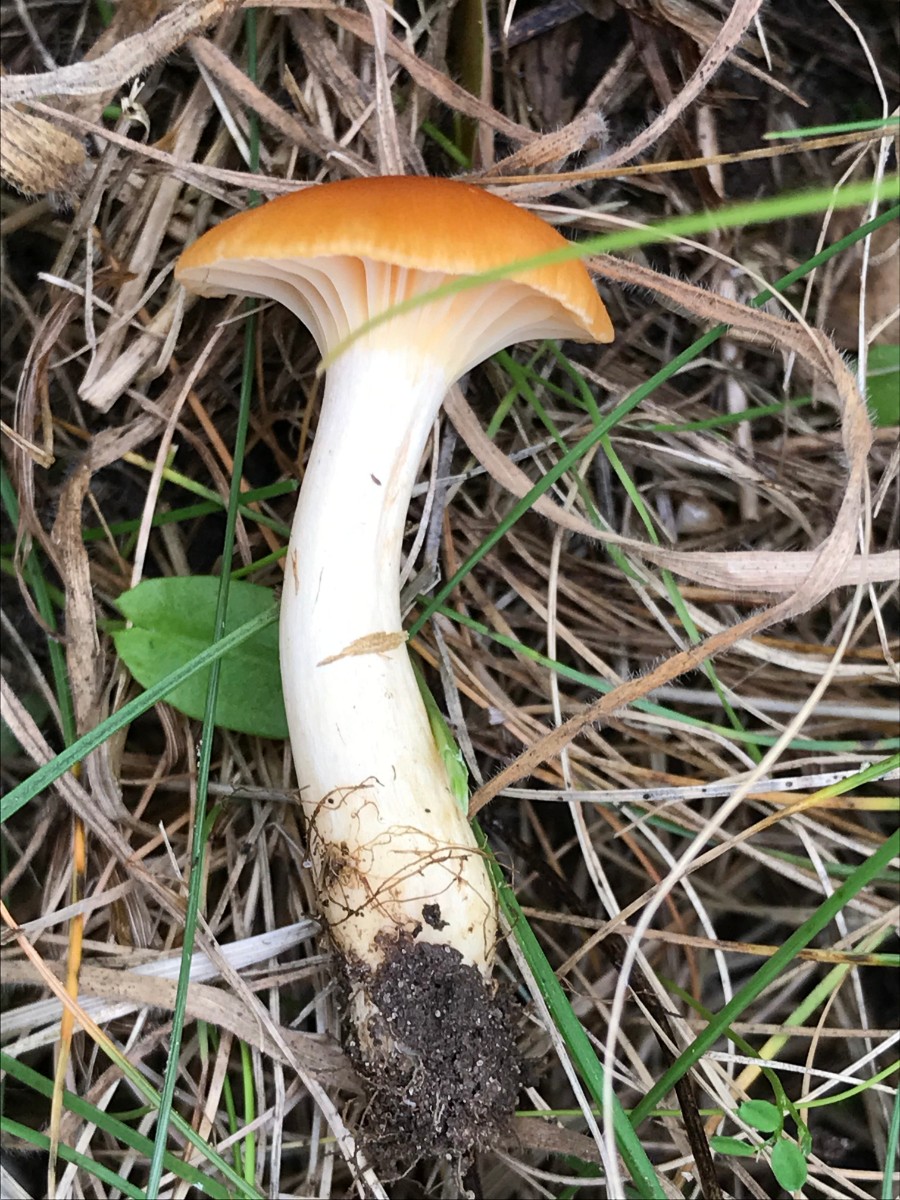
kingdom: Fungi
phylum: Basidiomycota
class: Agaricomycetes
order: Agaricales
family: Hygrophoraceae
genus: Cuphophyllus
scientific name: Cuphophyllus pratensis
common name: eng-vokshat
